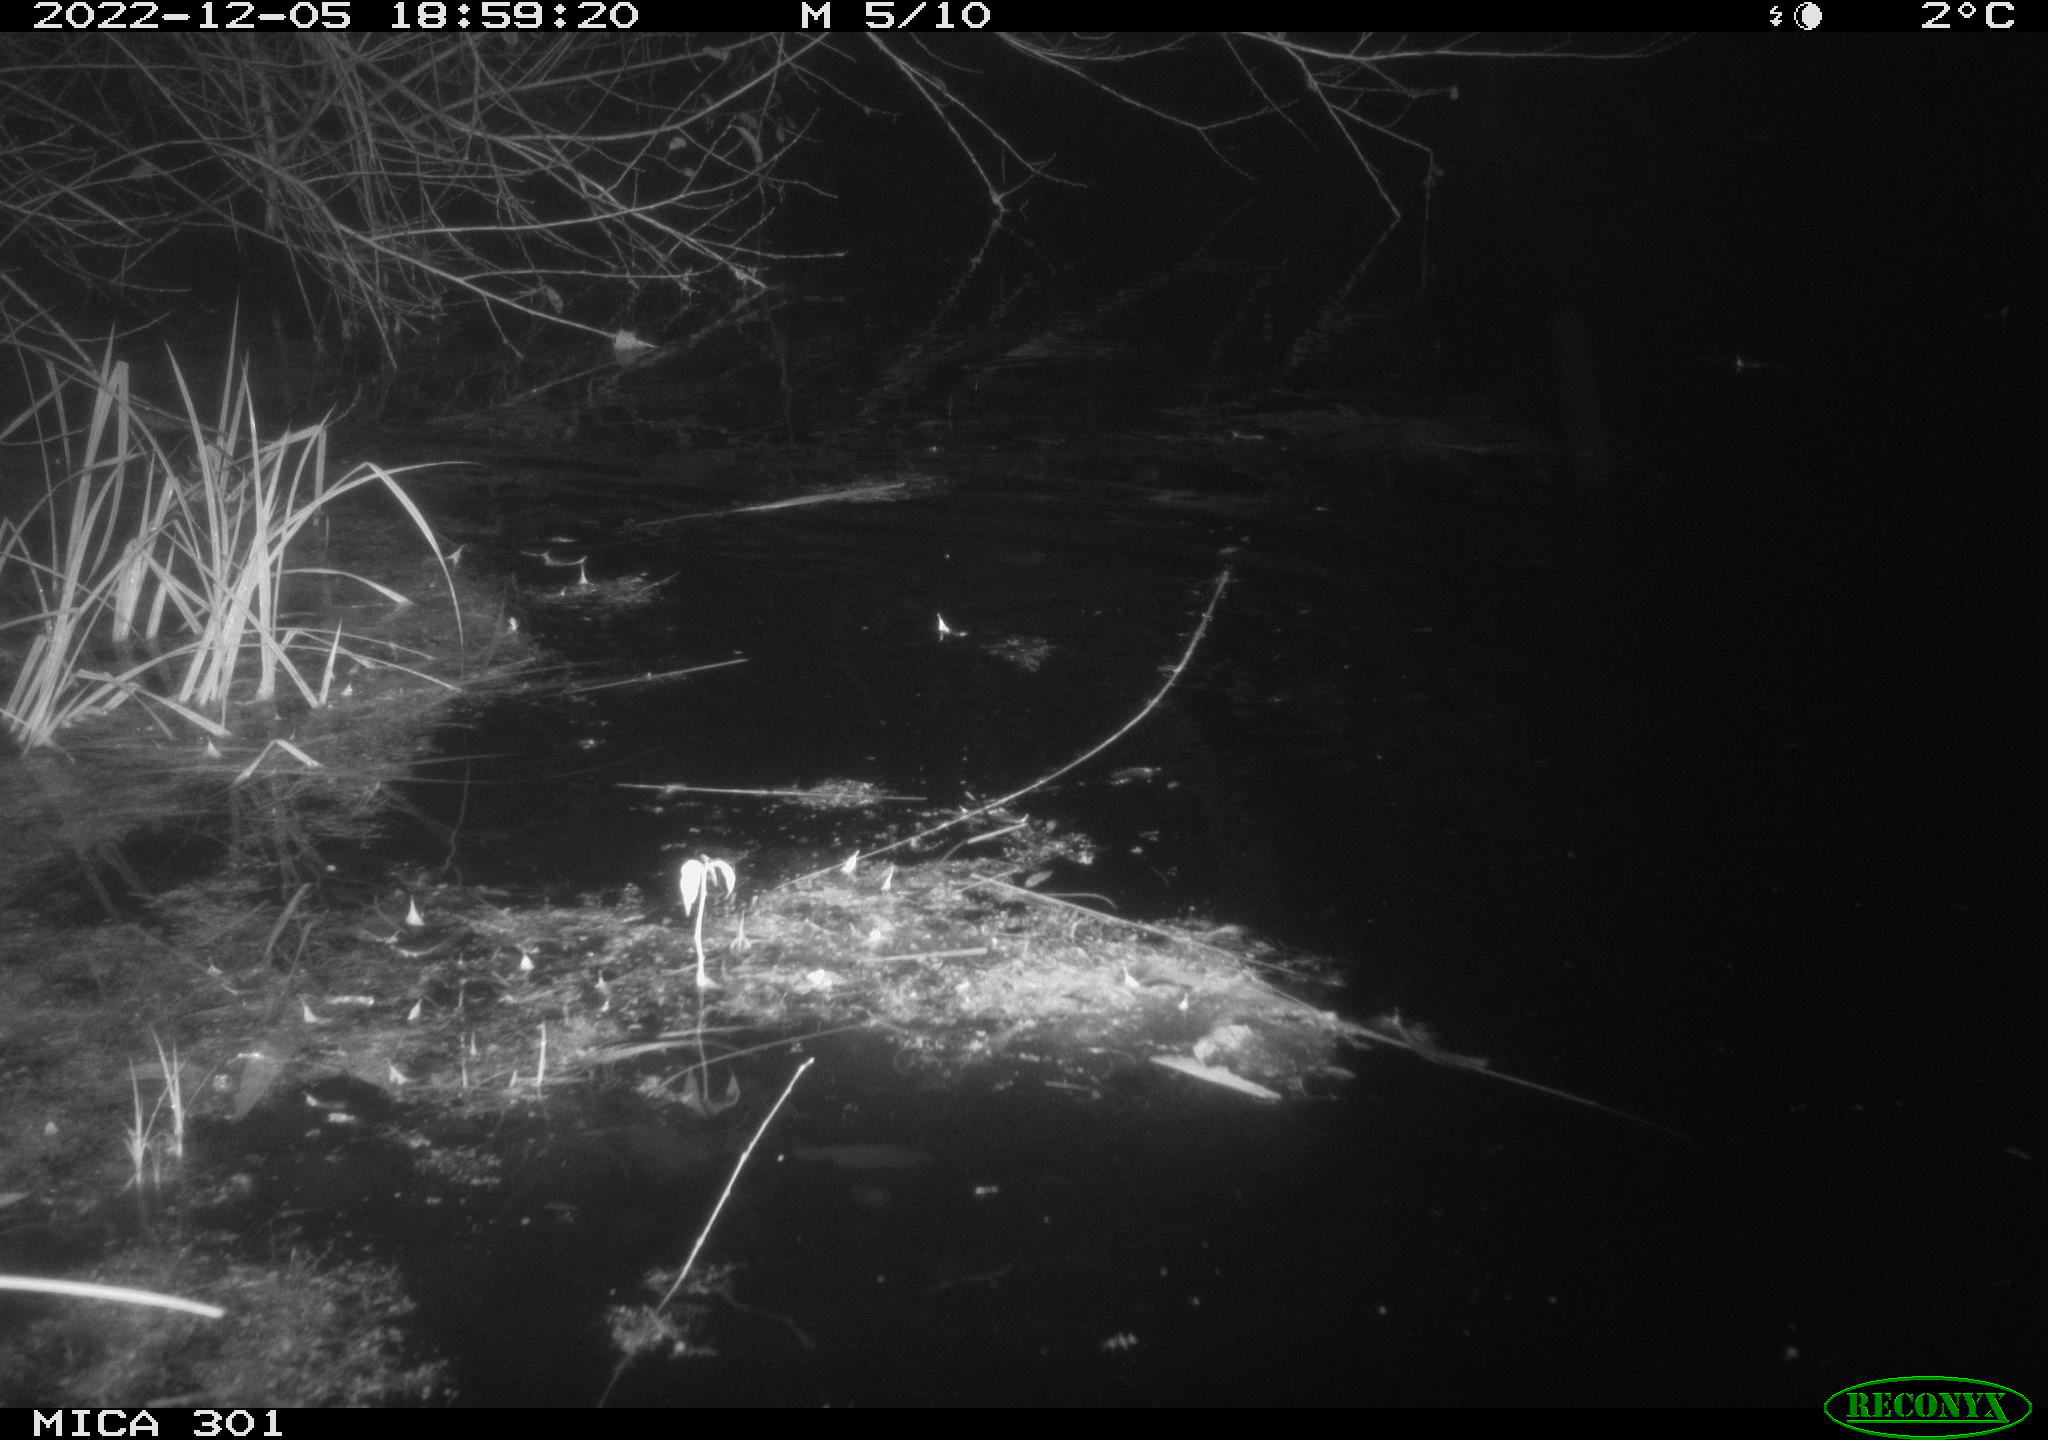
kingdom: Animalia
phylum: Chordata
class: Mammalia
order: Rodentia
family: Muridae
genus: Rattus
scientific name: Rattus norvegicus
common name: Brown rat
